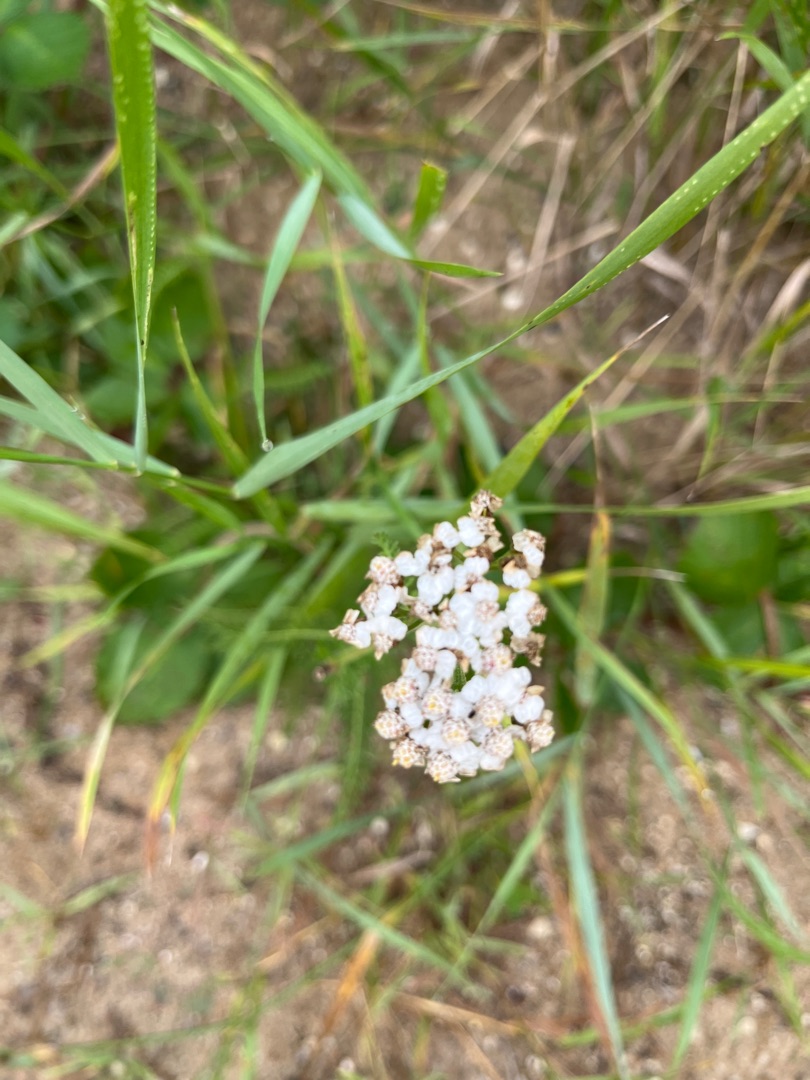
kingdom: Plantae
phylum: Tracheophyta
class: Magnoliopsida
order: Asterales
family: Asteraceae
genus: Achillea
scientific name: Achillea millefolium
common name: Almindelig røllike
